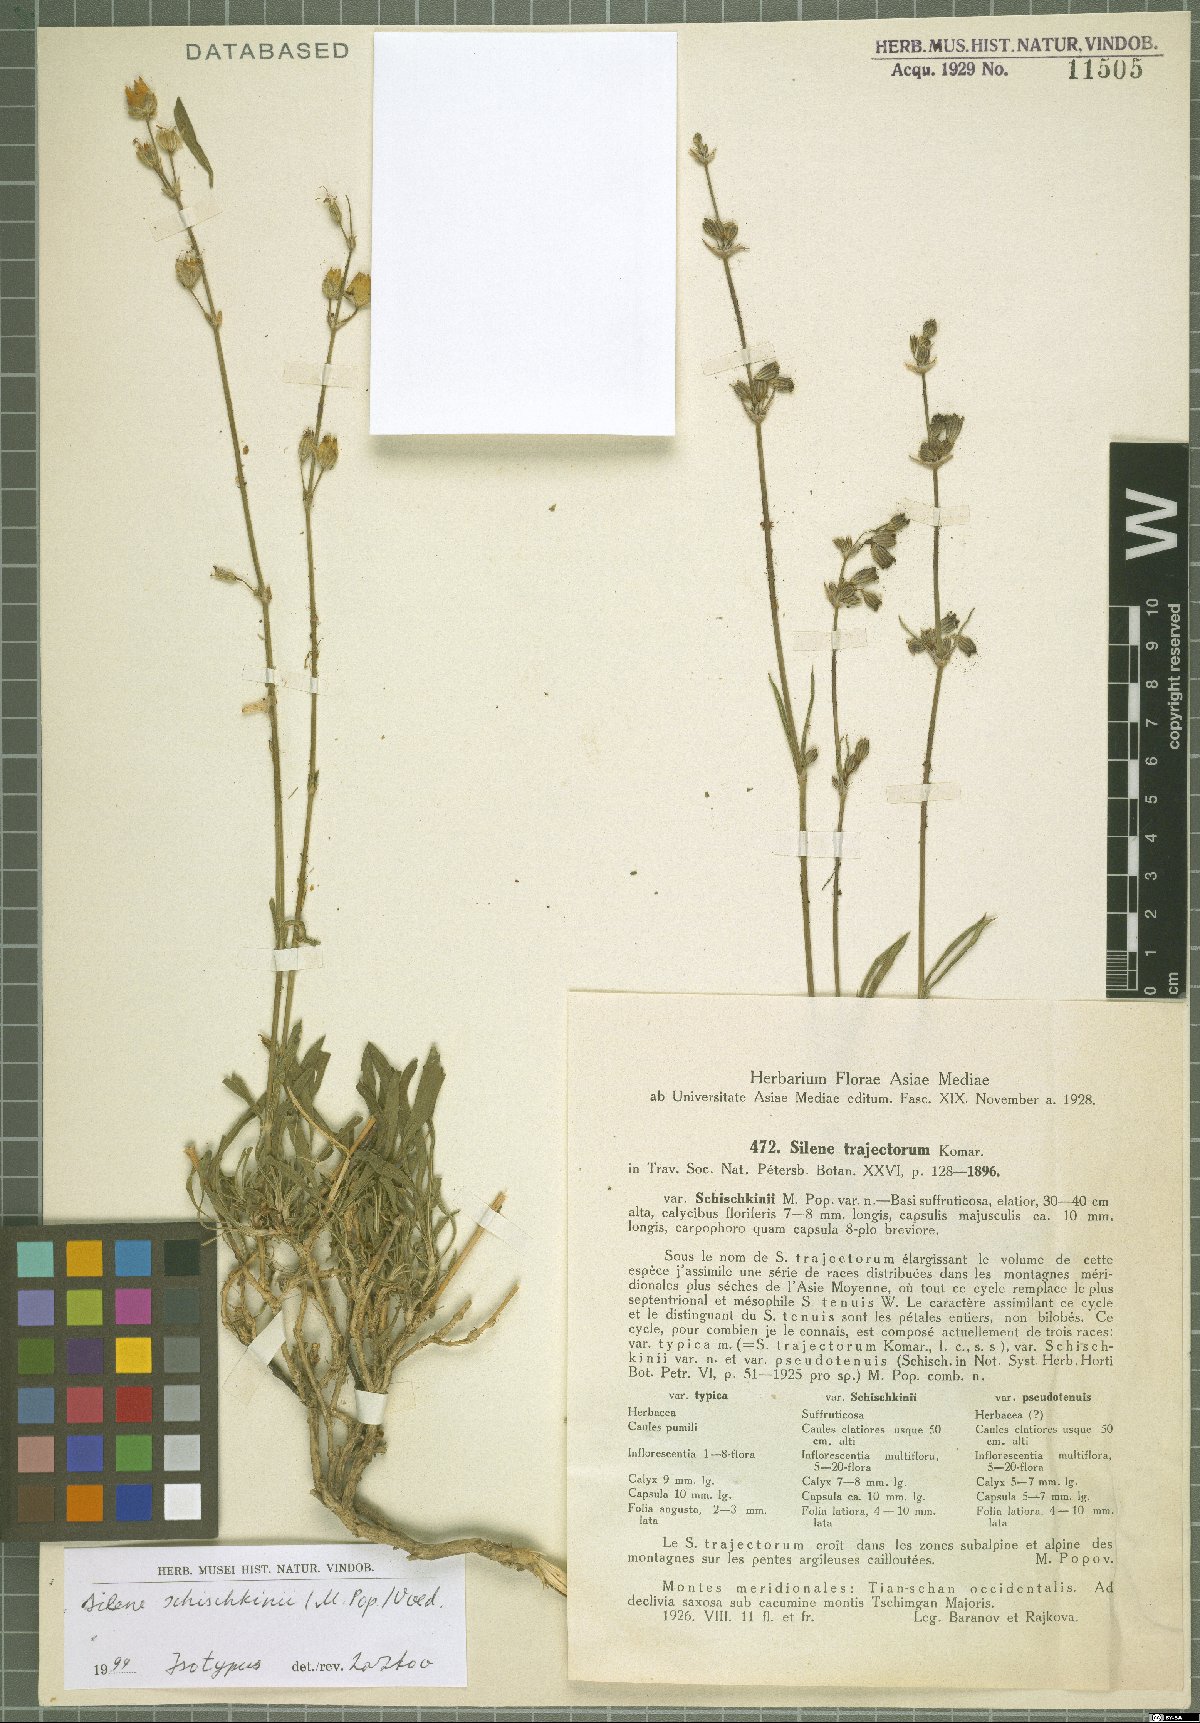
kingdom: Plantae
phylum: Tracheophyta
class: Magnoliopsida
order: Caryophyllales
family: Caryophyllaceae
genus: Silene
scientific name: Silene schischkinii
